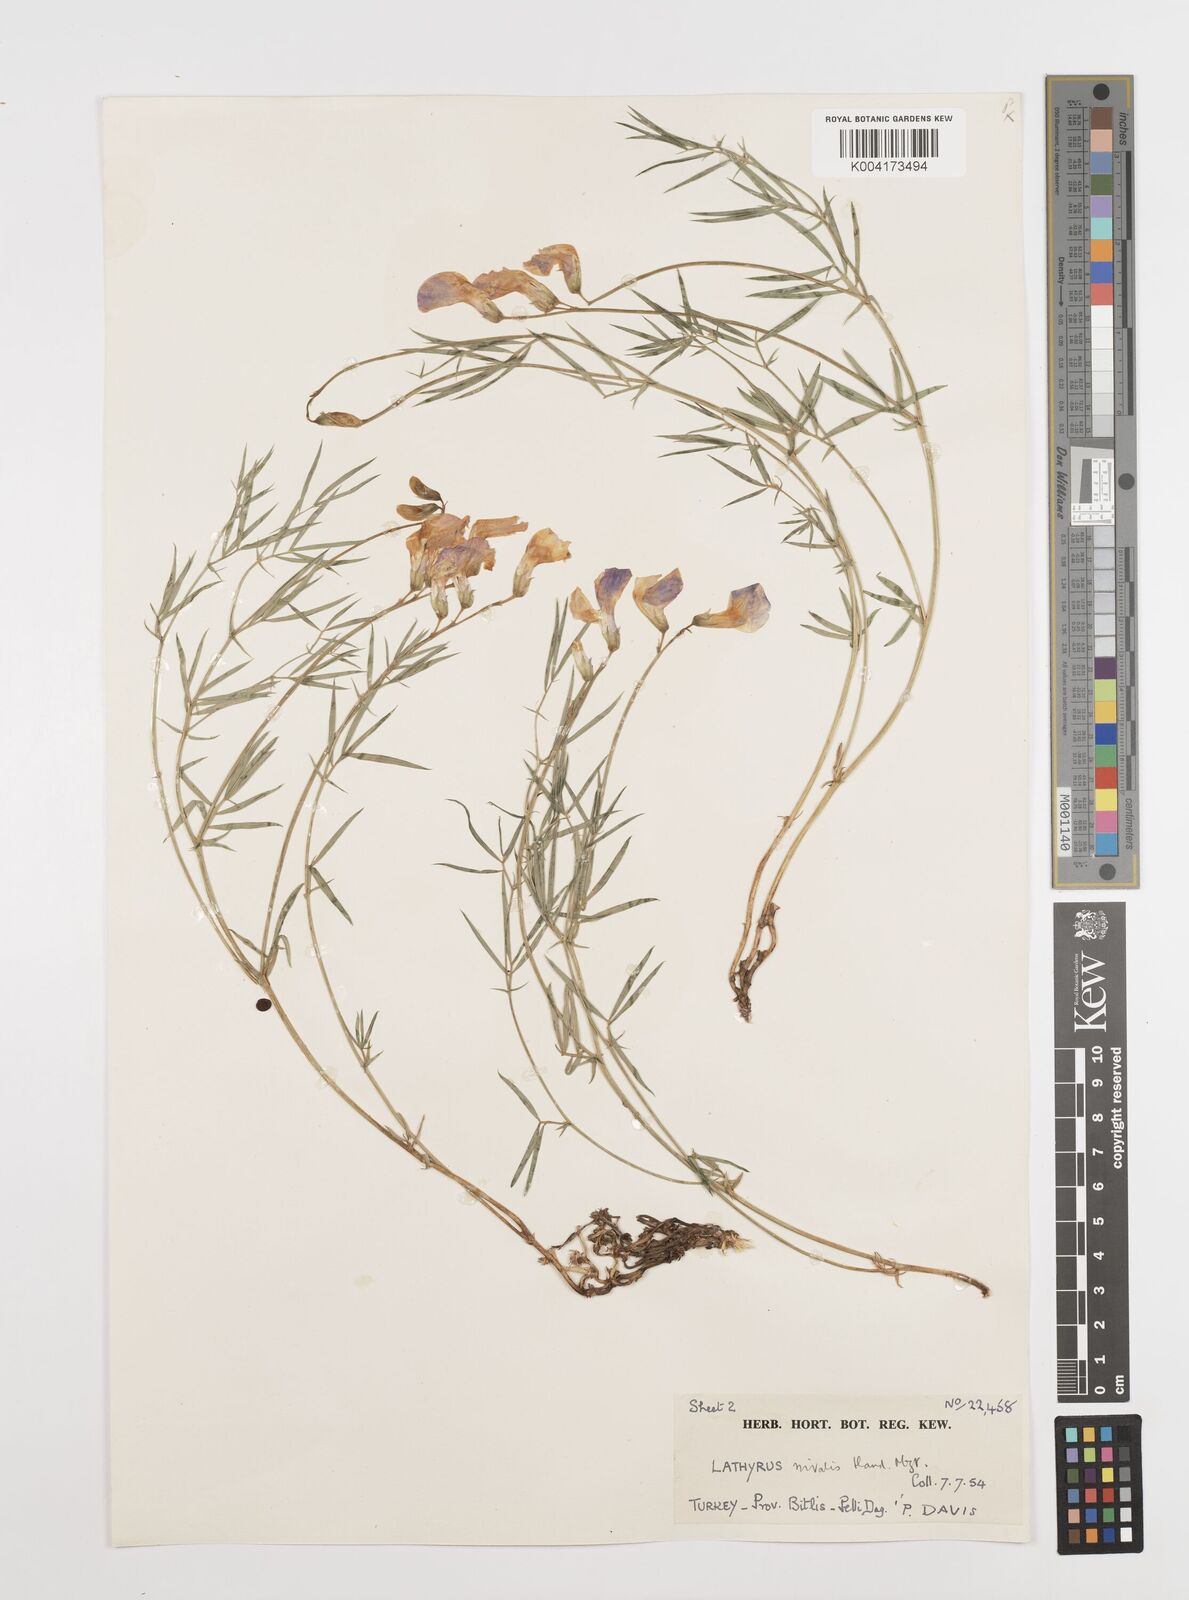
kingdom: Plantae
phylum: Tracheophyta
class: Magnoliopsida
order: Fabales
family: Fabaceae
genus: Lathyrus
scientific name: Lathyrus nivalis
